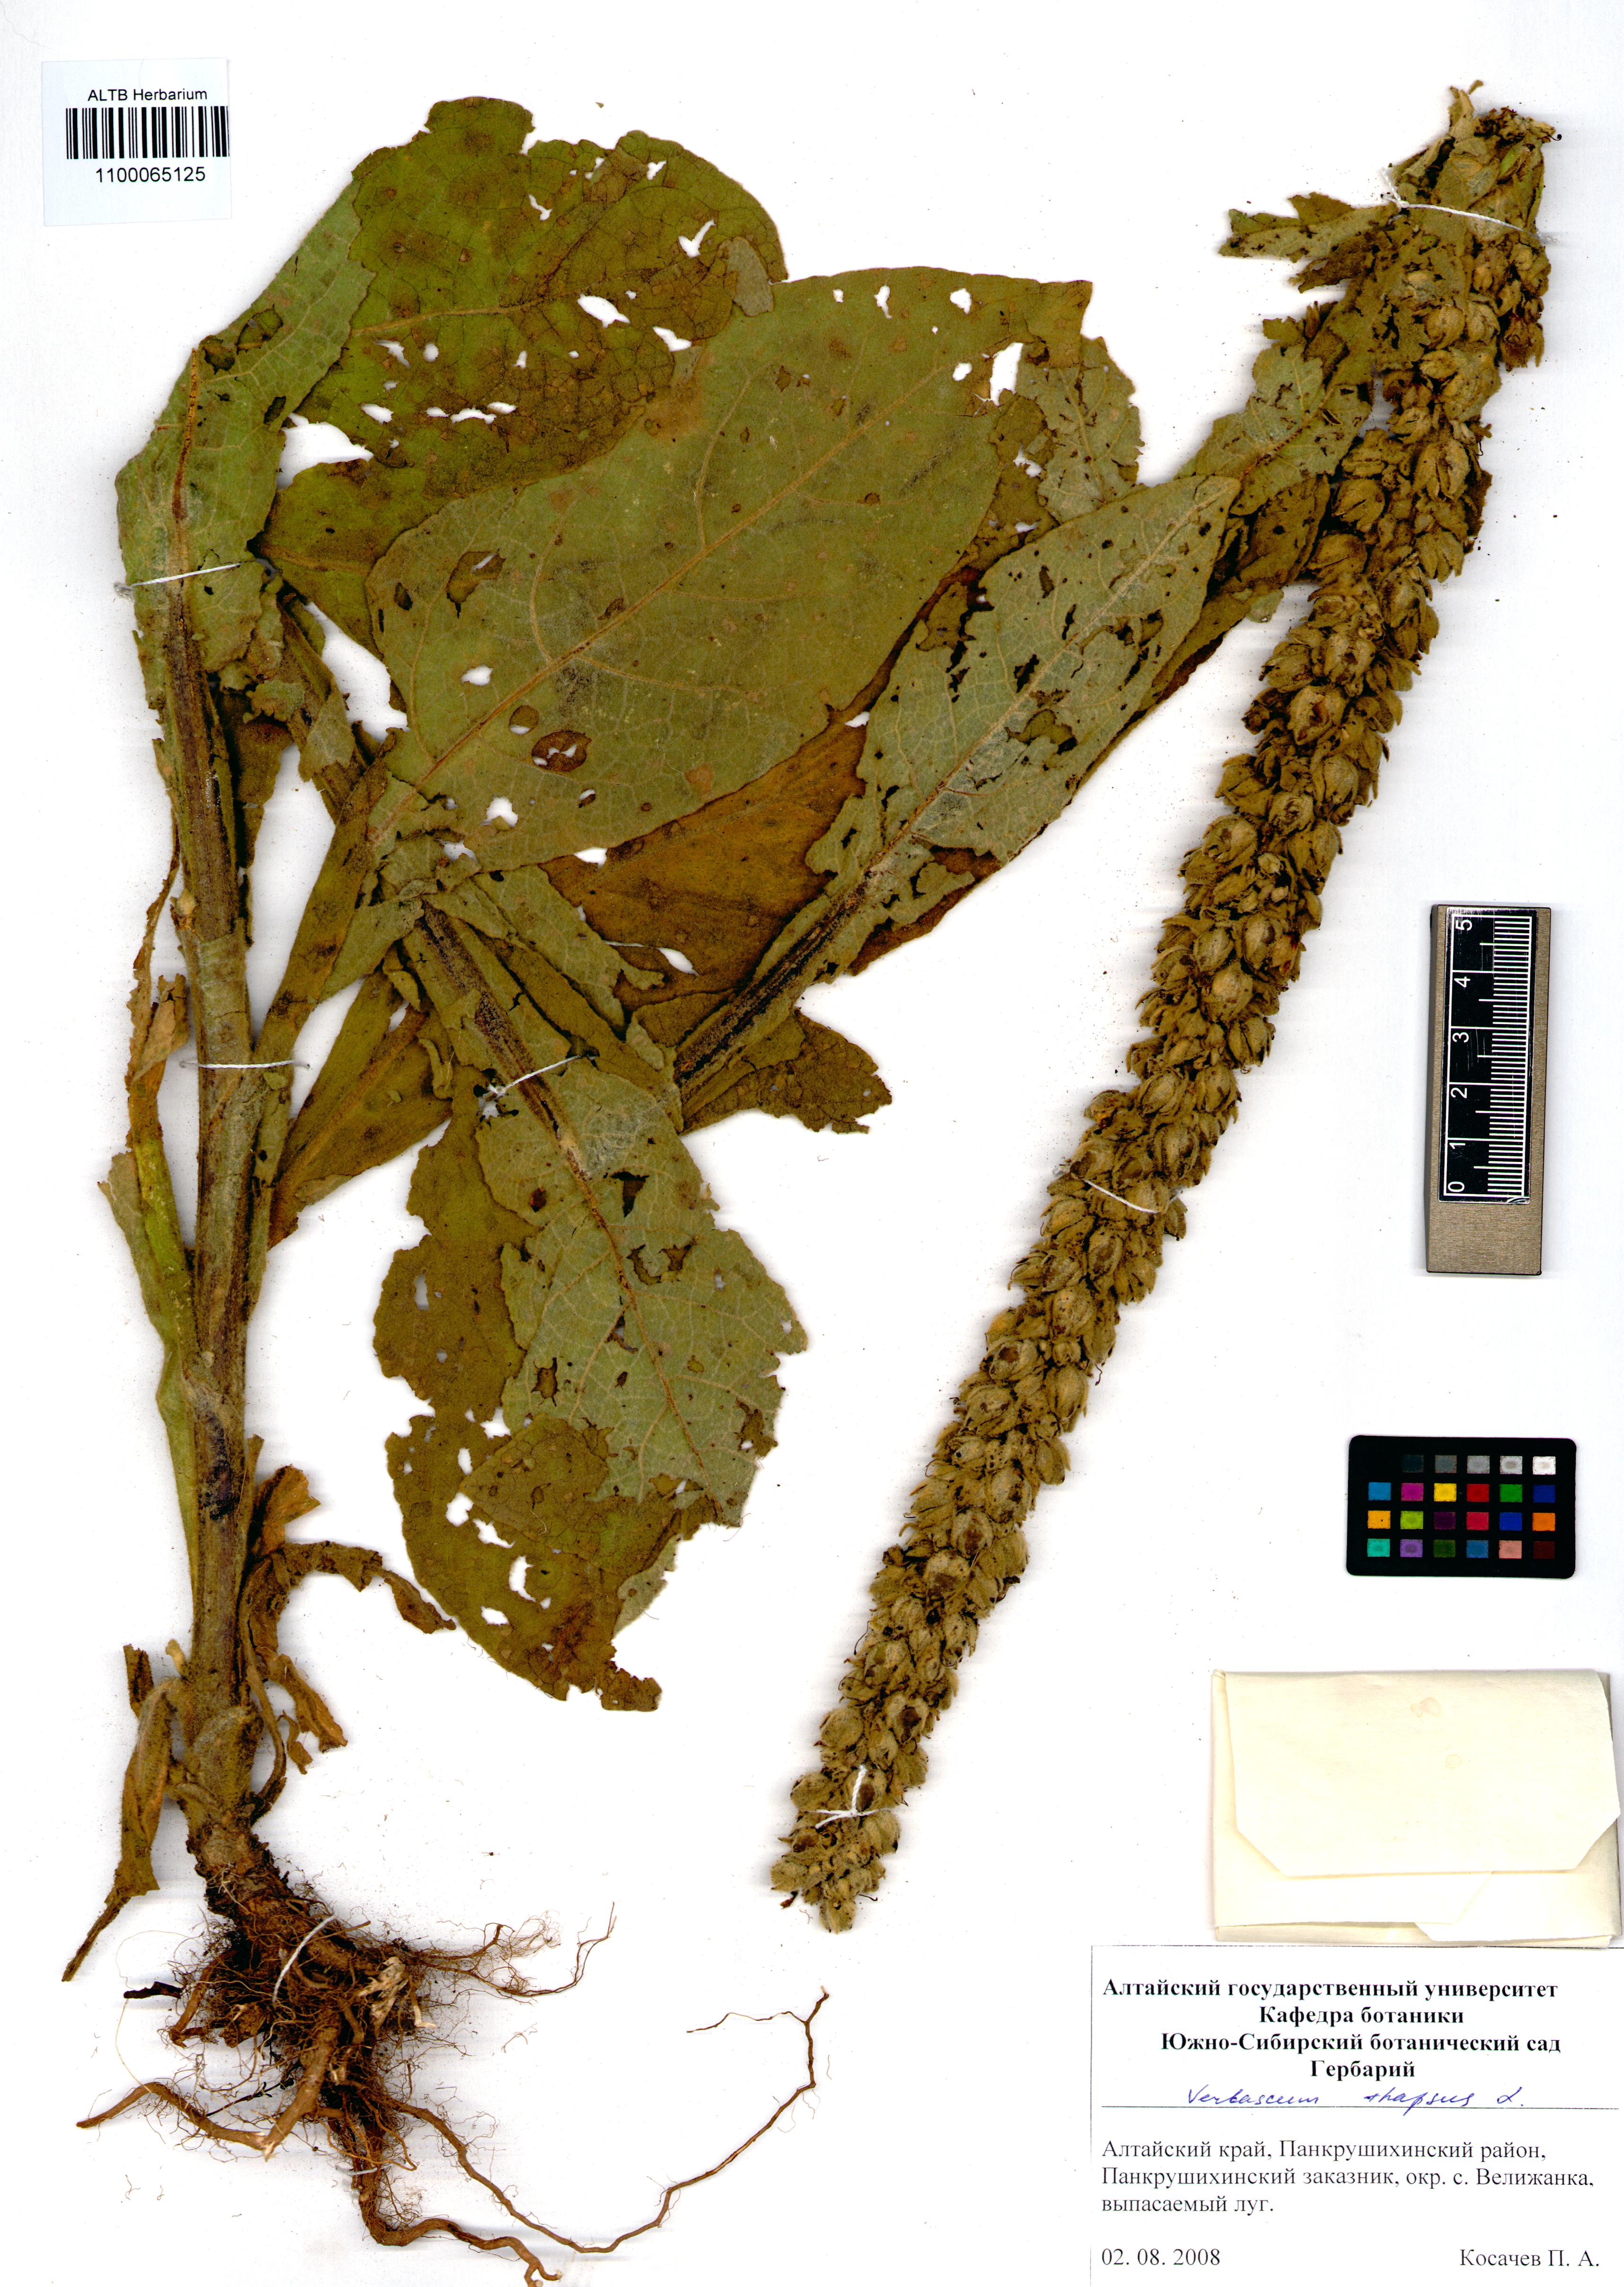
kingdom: Plantae
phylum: Tracheophyta
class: Magnoliopsida
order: Lamiales
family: Scrophulariaceae
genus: Verbascum
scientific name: Verbascum thapsus
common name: Common mullein
